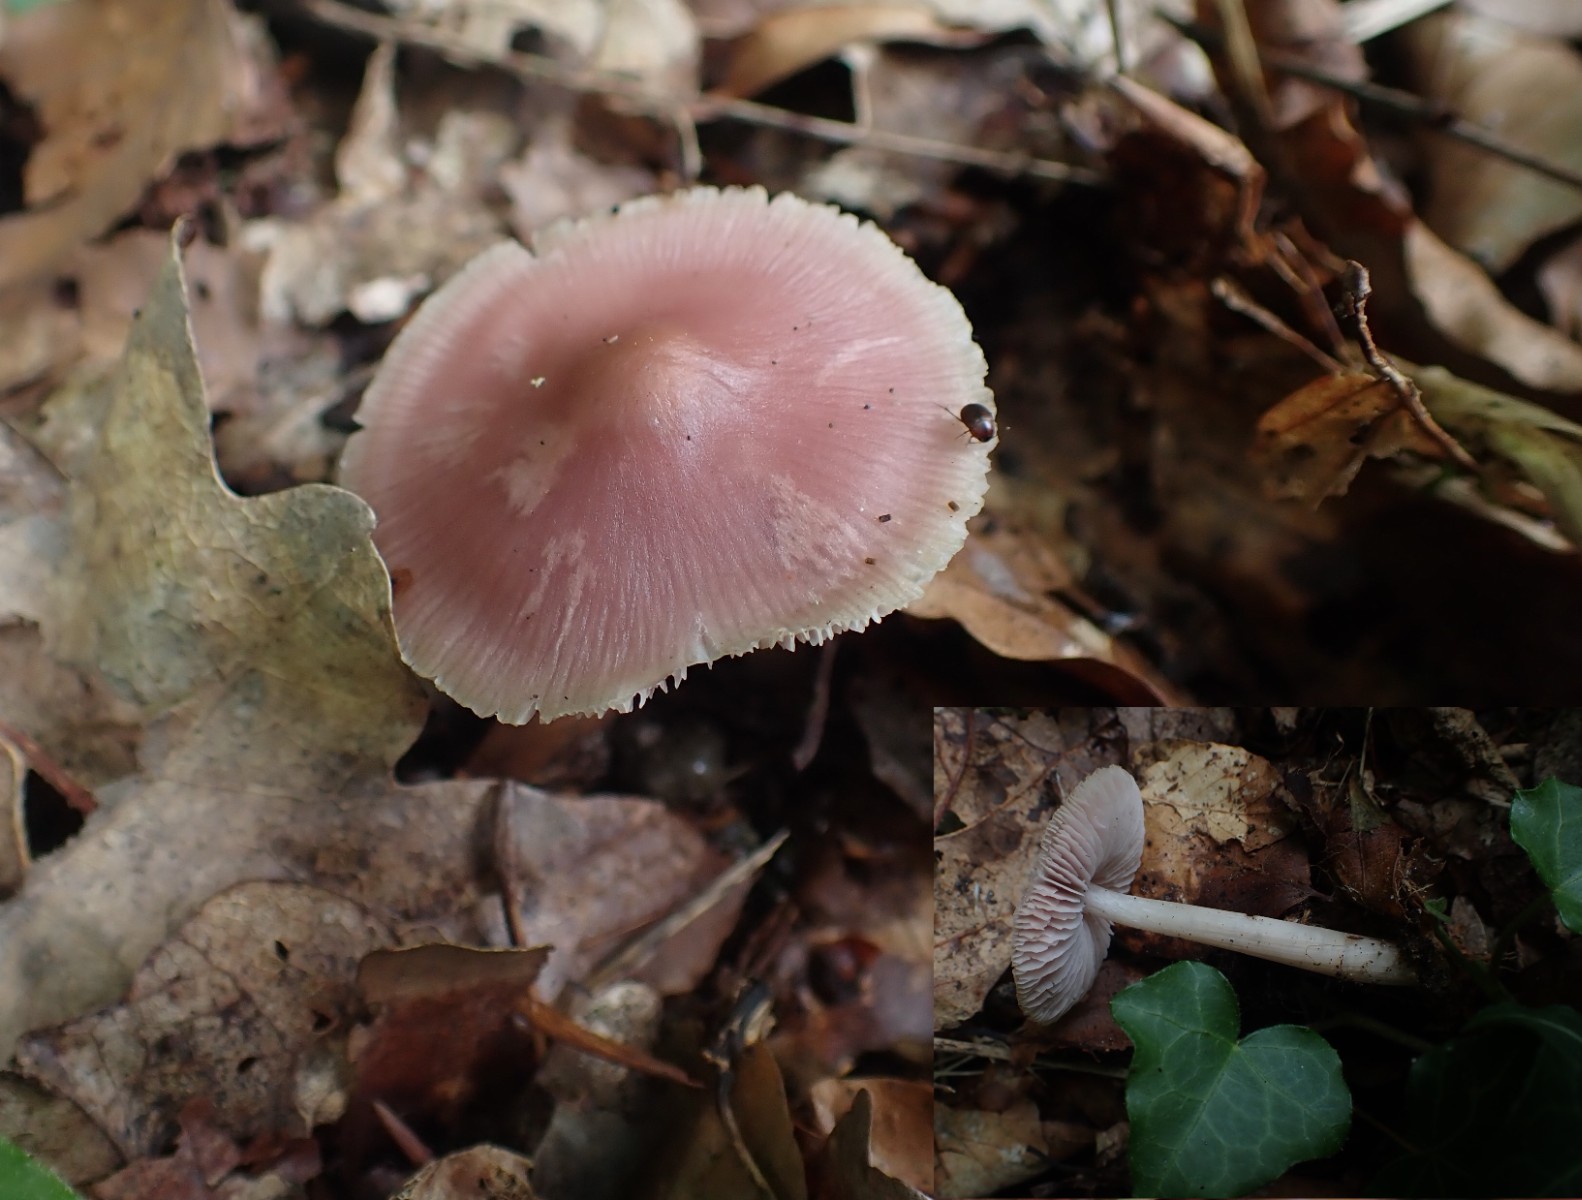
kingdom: Fungi
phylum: Basidiomycota
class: Agaricomycetes
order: Agaricales
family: Mycenaceae
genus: Mycena
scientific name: Mycena rosea
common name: rosa huesvamp
